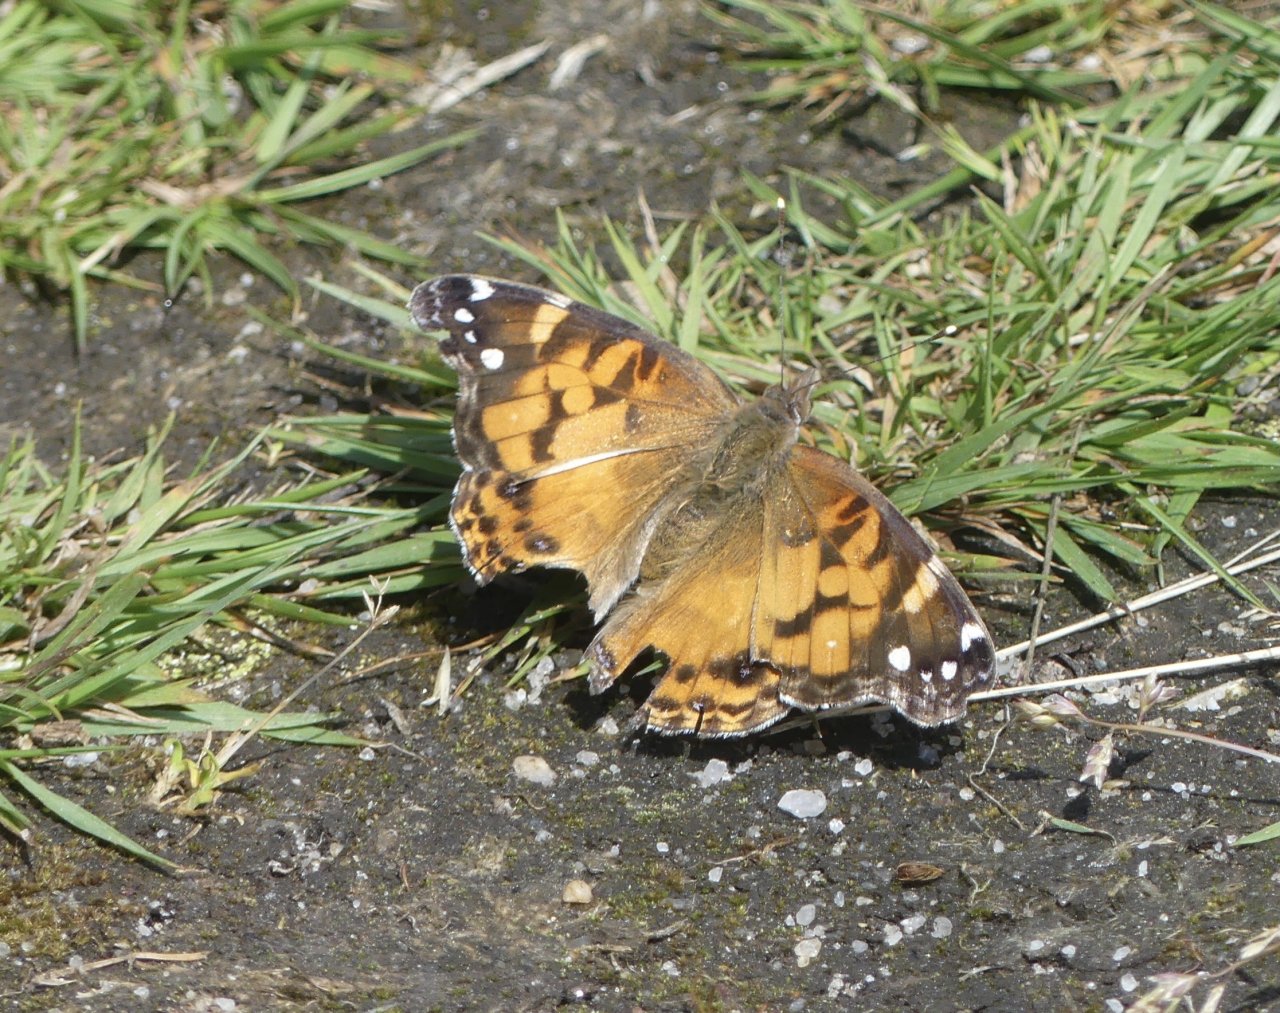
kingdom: Animalia
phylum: Arthropoda
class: Insecta
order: Lepidoptera
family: Nymphalidae
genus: Vanessa
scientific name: Vanessa virginiensis
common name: American Lady
